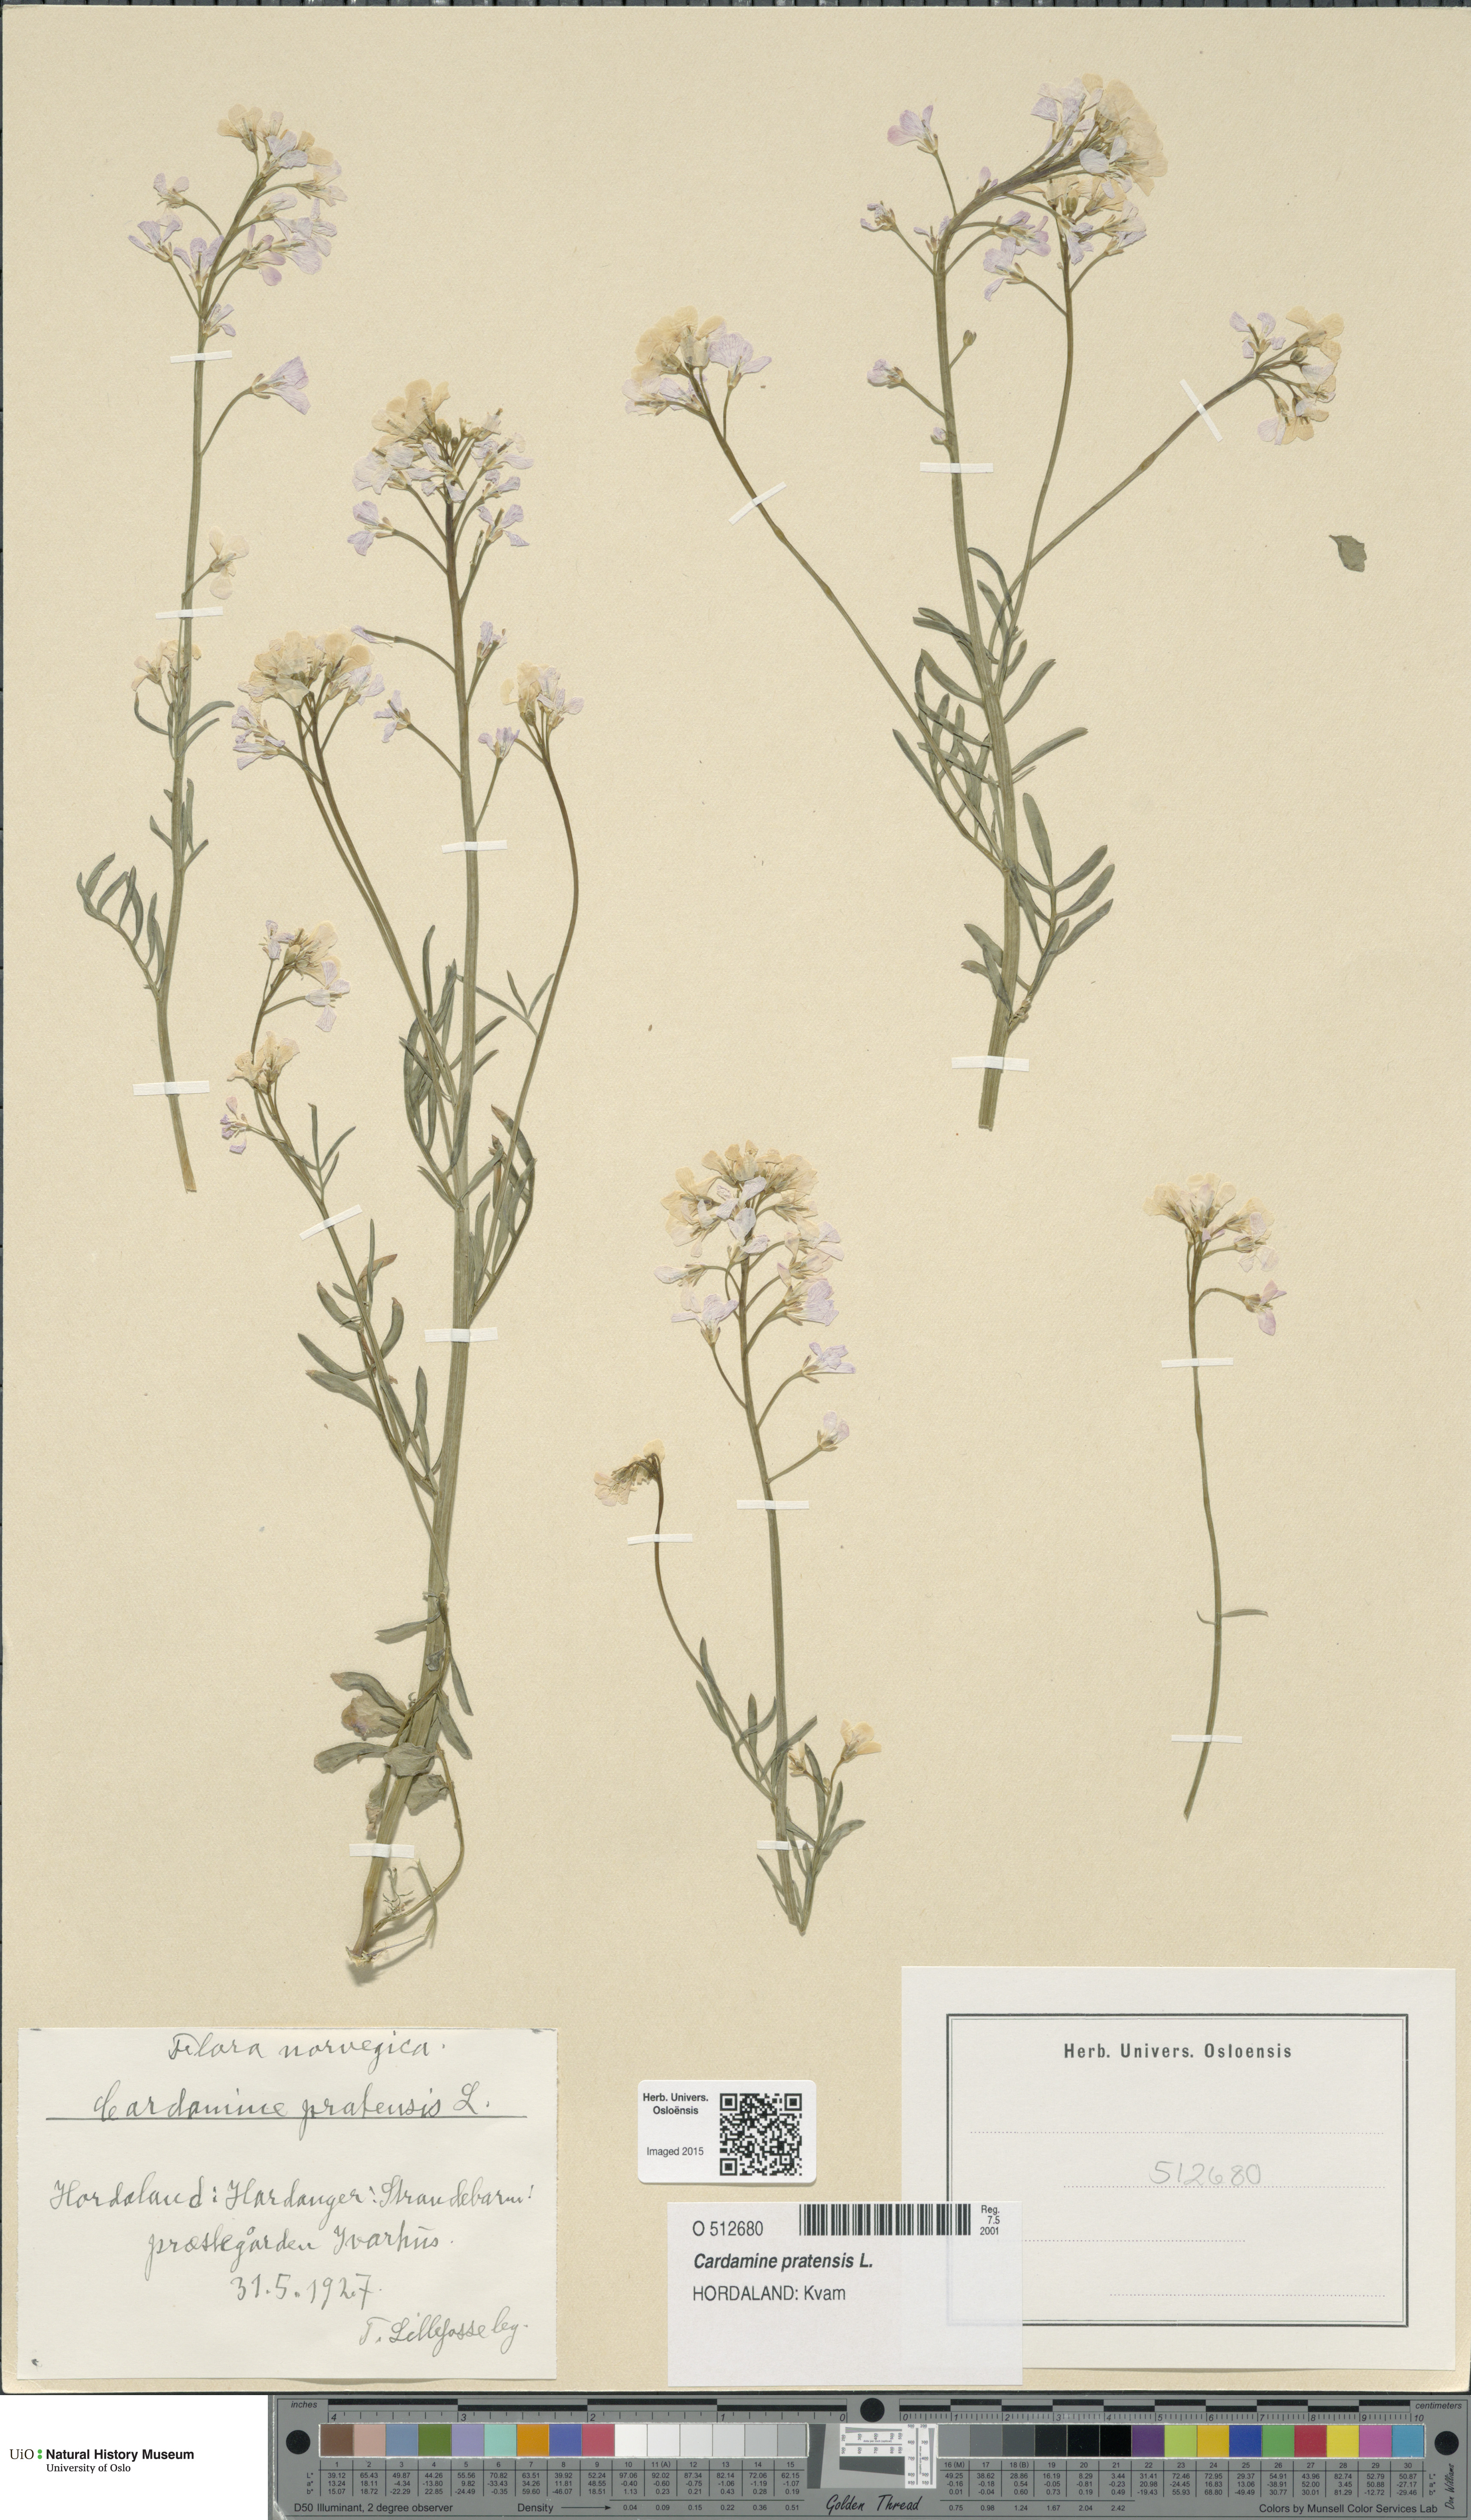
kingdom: Plantae
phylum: Tracheophyta
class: Magnoliopsida
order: Brassicales
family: Brassicaceae
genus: Cardamine
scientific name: Cardamine pratensis
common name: Cuckoo flower
